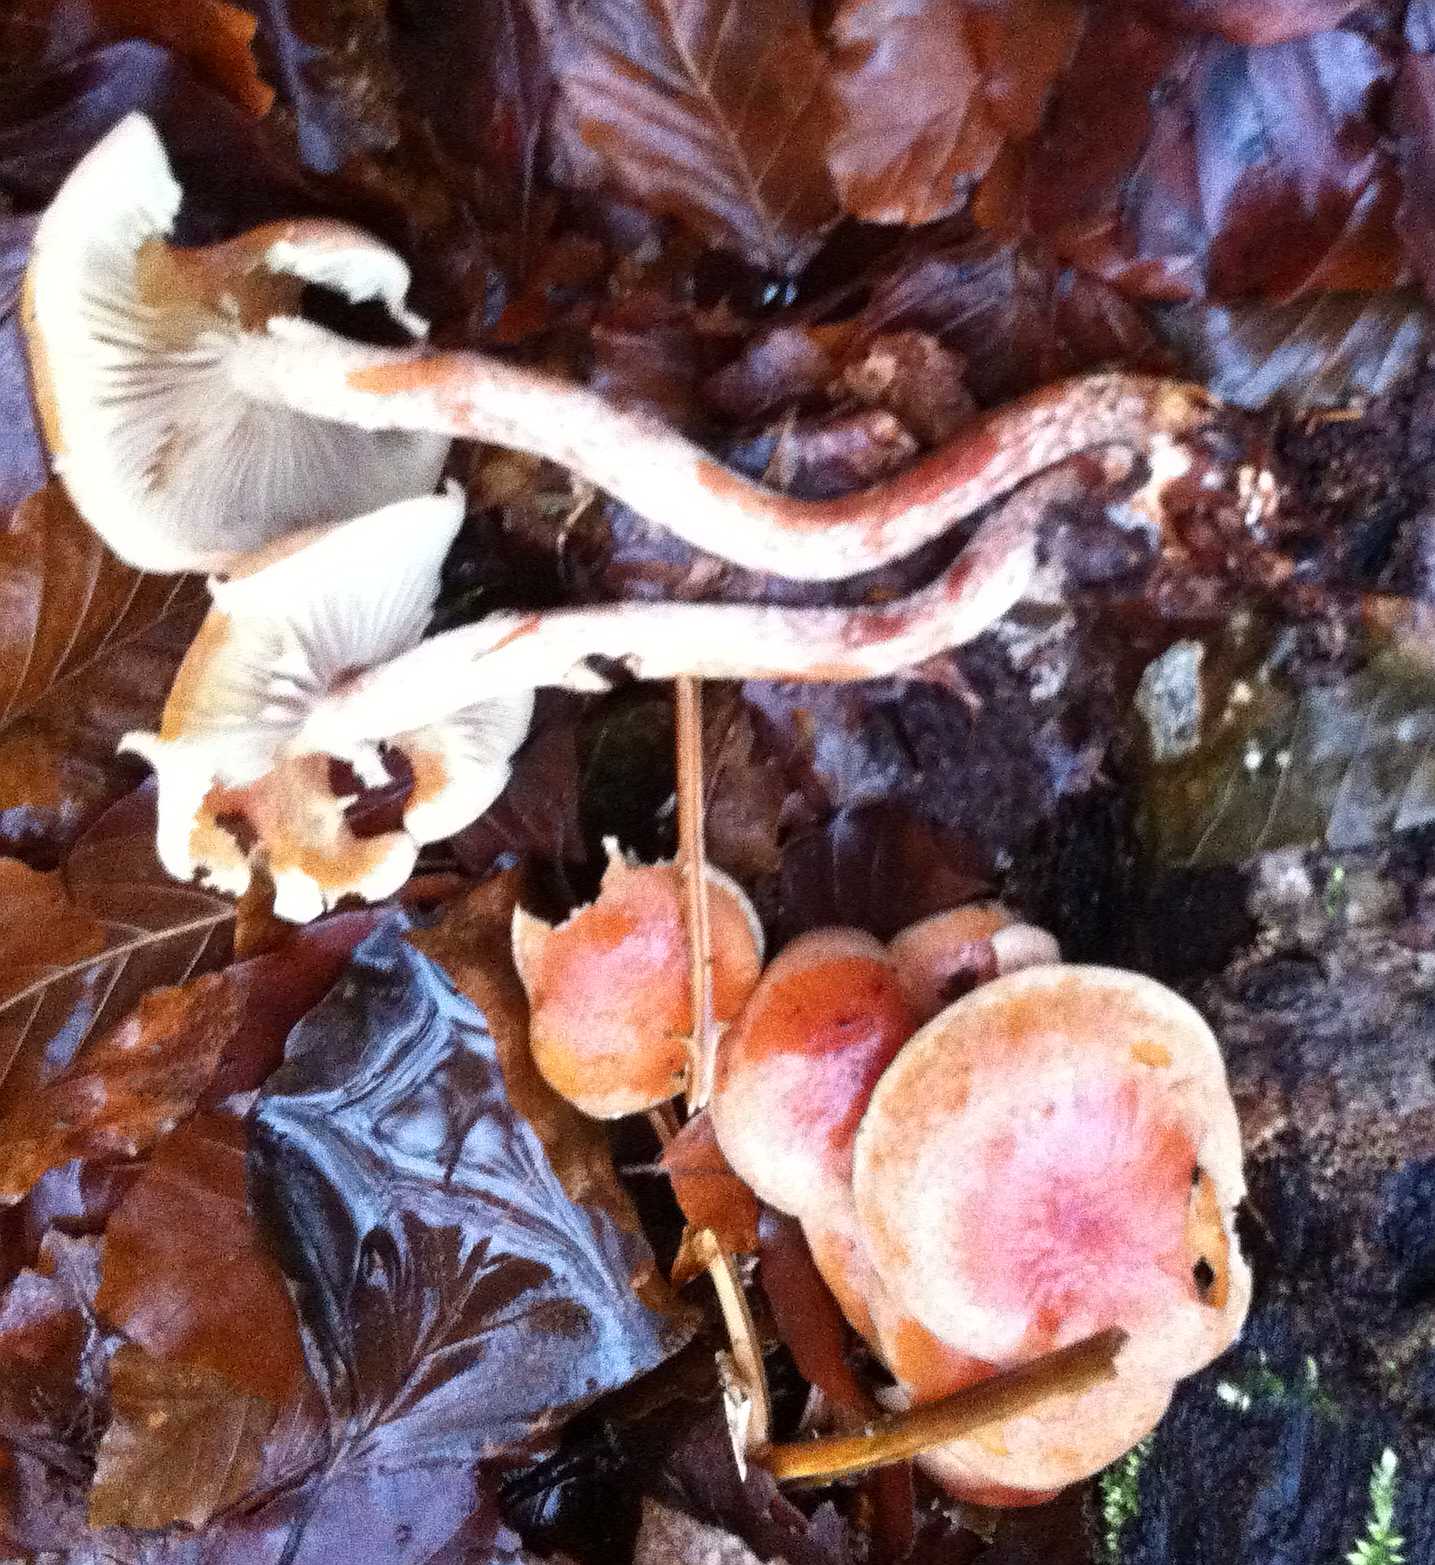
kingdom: Fungi
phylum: Basidiomycota
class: Agaricomycetes
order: Agaricales
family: Strophariaceae
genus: Hypholoma
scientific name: Hypholoma lateritium
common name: teglrød svovlhat
